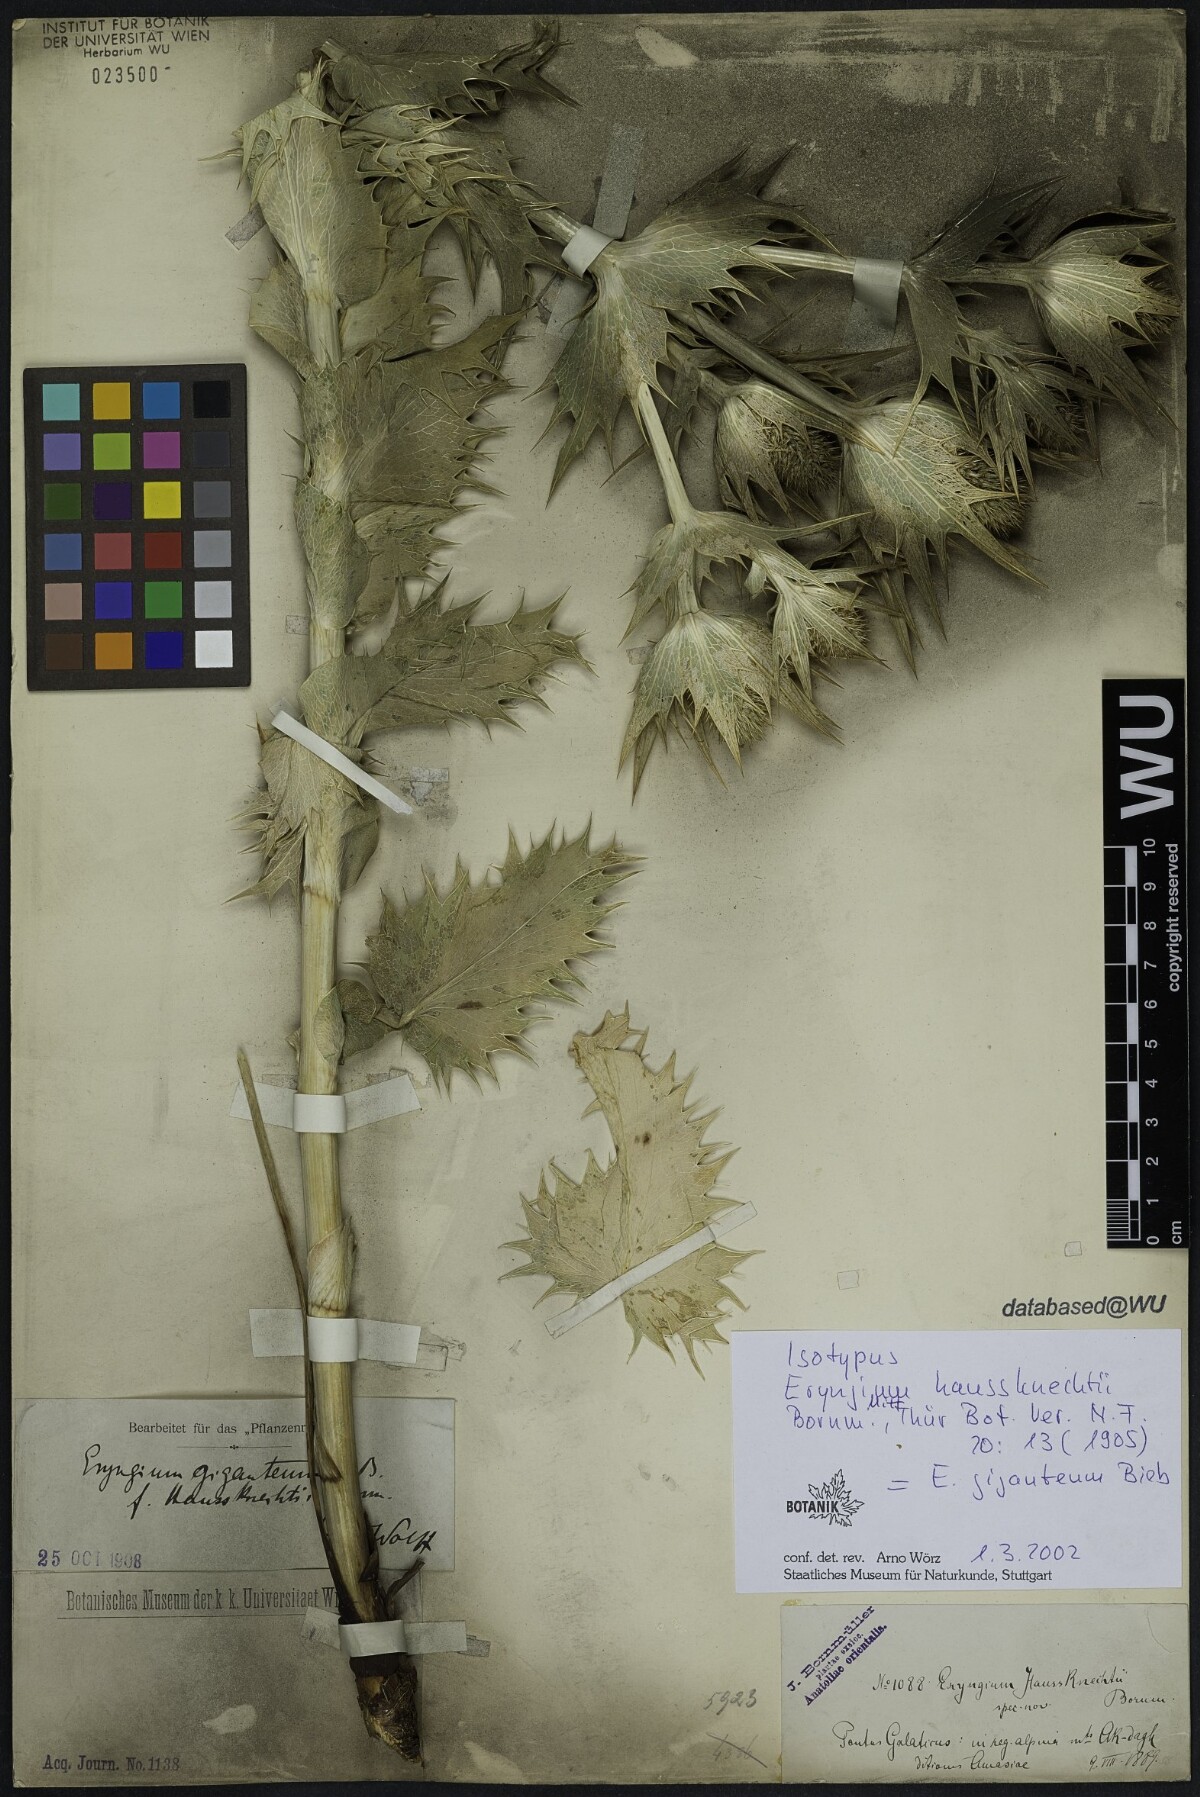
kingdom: Plantae
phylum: Tracheophyta
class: Magnoliopsida
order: Apiales
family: Apiaceae
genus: Eryngium
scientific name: Eryngium giganteum
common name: Tall eryngo
